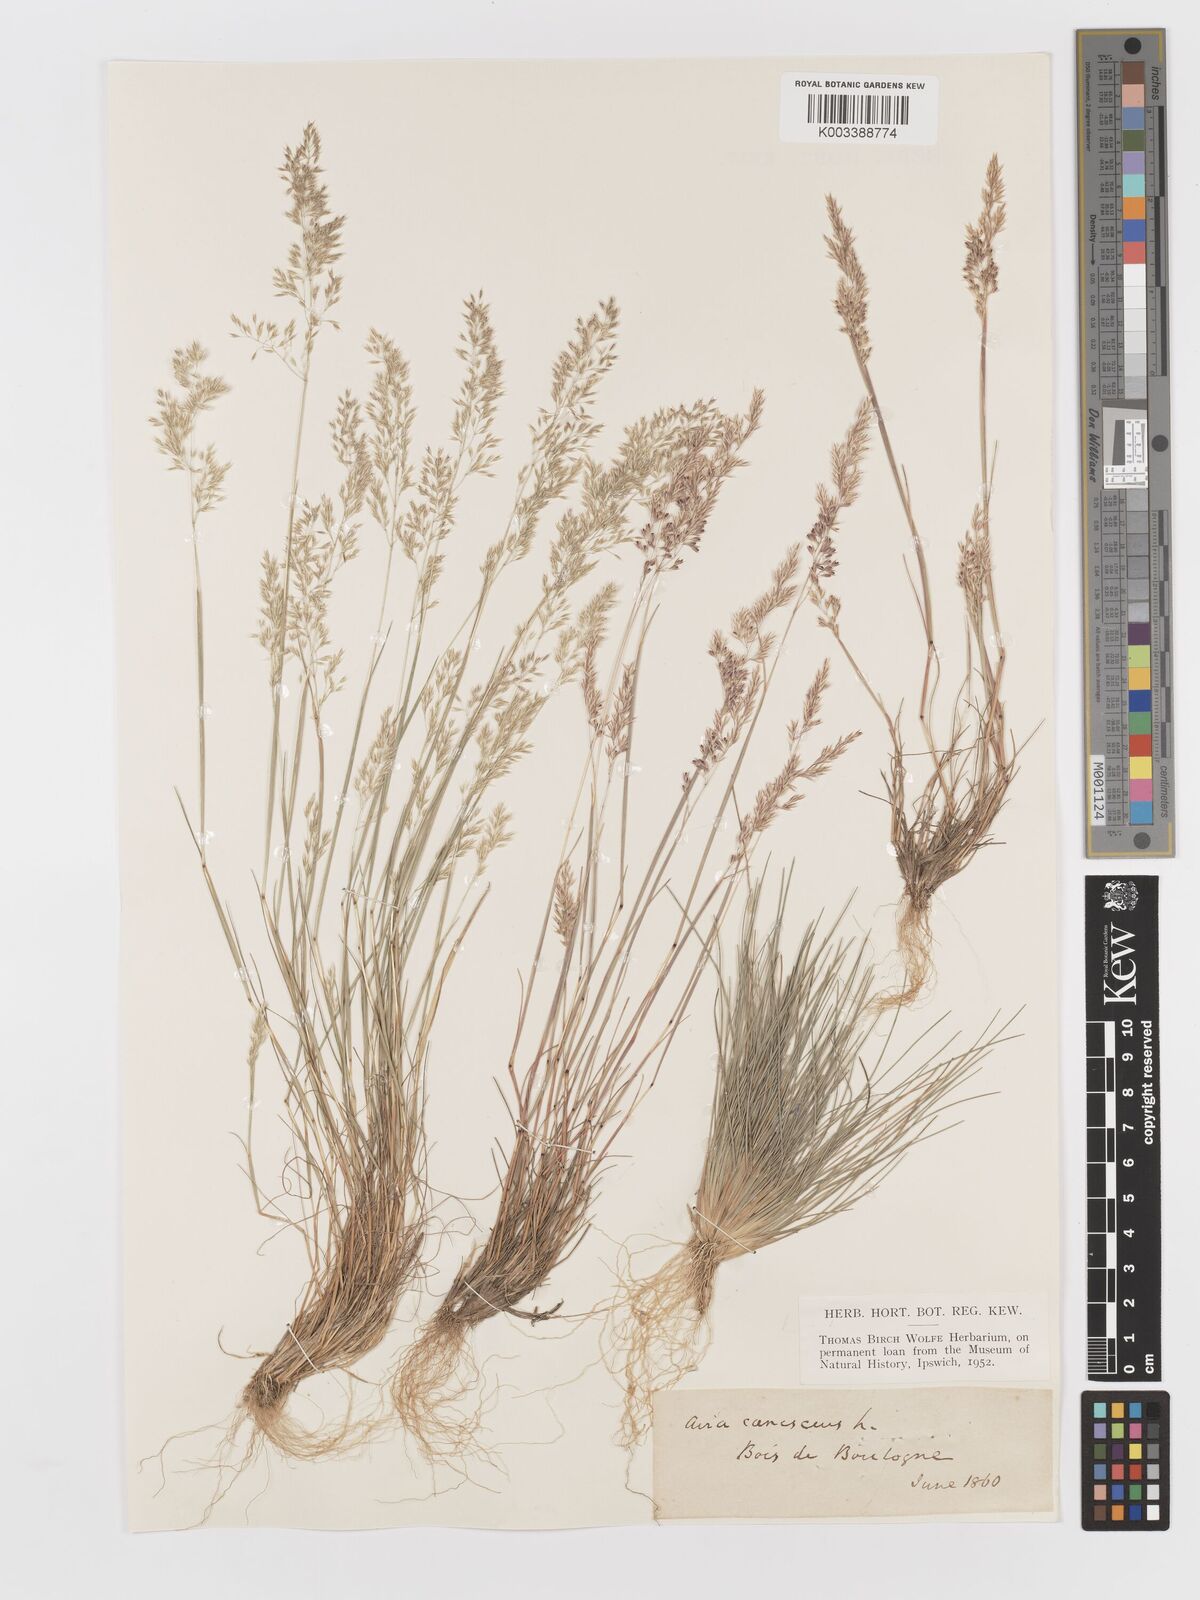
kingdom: Plantae
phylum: Tracheophyta
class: Liliopsida
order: Poales
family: Poaceae
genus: Corynephorus
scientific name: Corynephorus canescens
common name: Grey hair-grass
